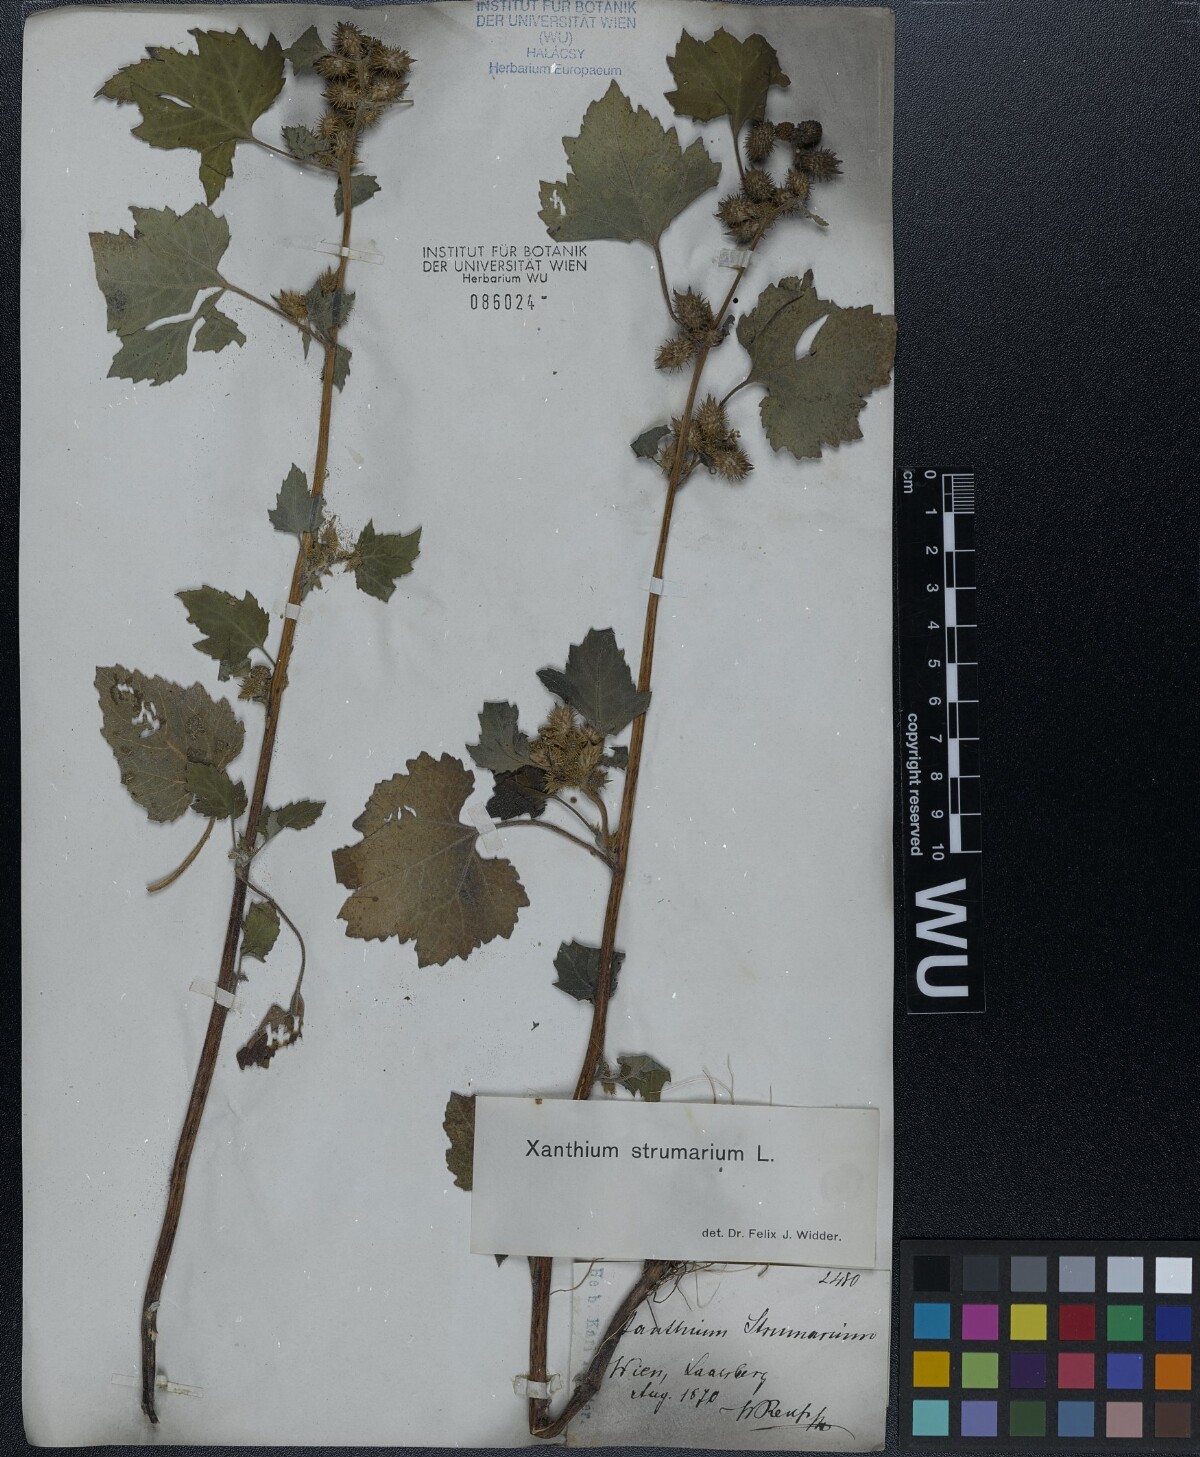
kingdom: Plantae
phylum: Tracheophyta
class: Magnoliopsida
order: Asterales
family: Asteraceae
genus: Xanthium
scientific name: Xanthium strumarium
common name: Rough cocklebur
